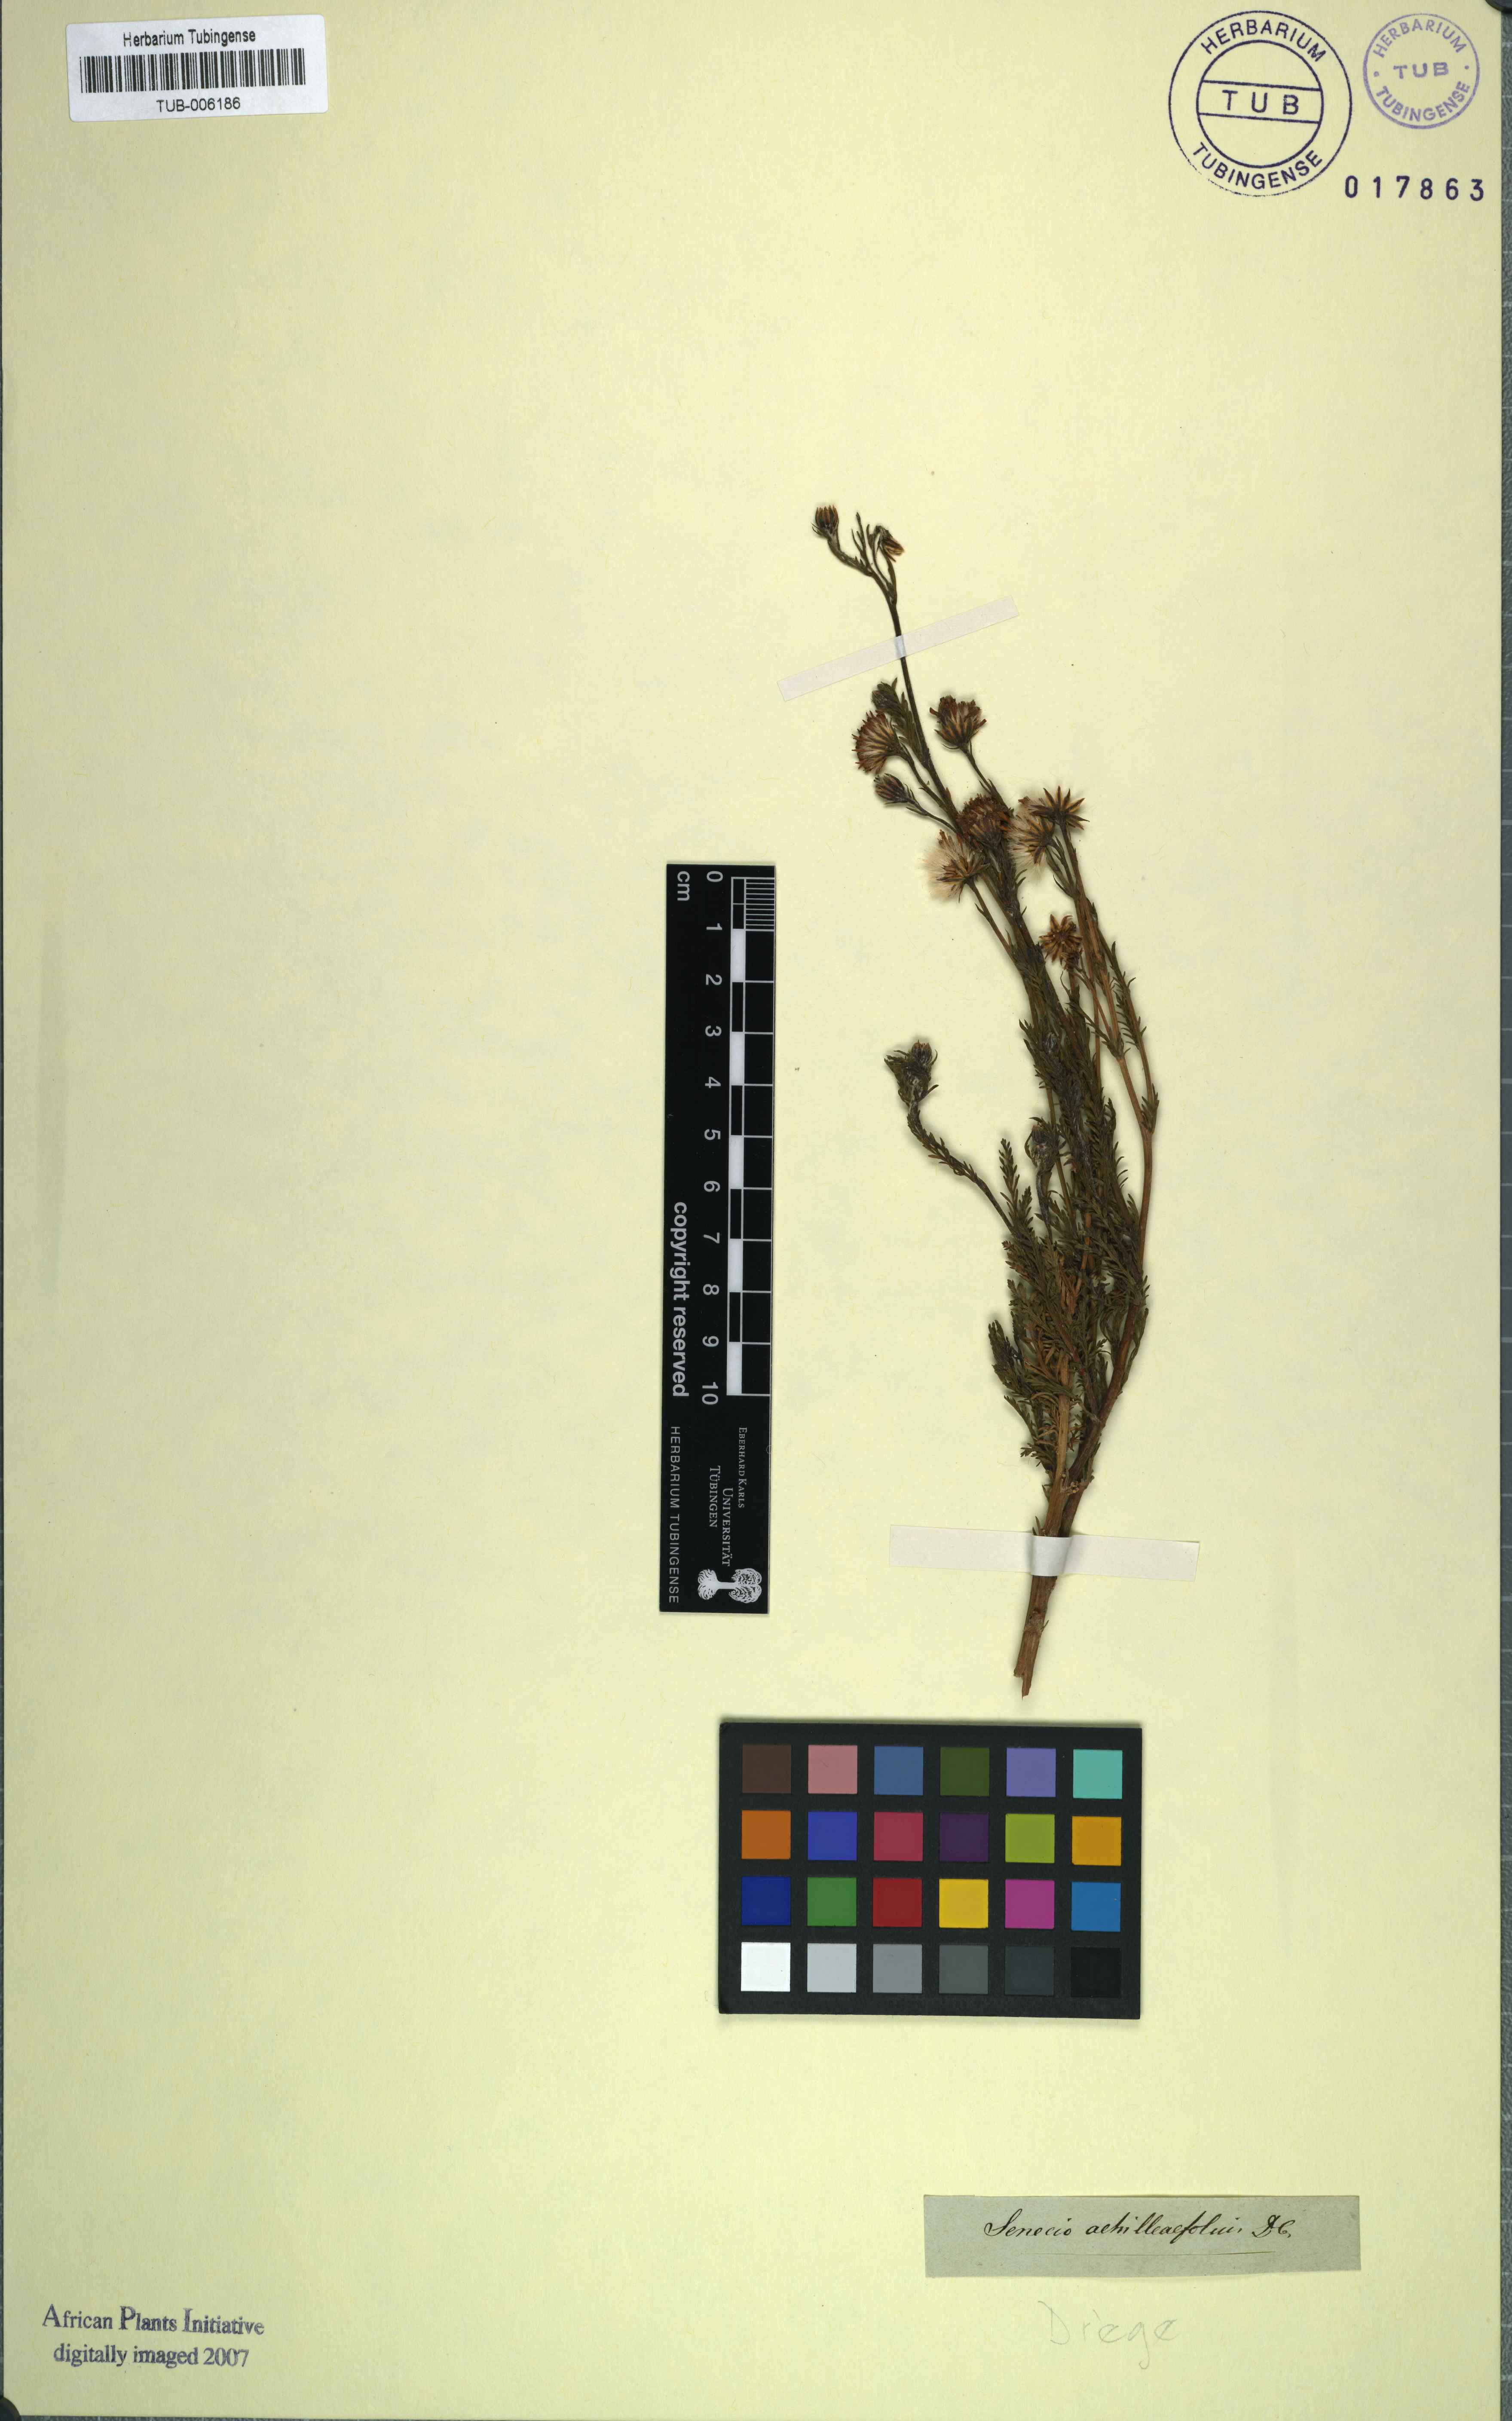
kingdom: Plantae
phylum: Tracheophyta
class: Magnoliopsida
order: Asterales
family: Asteraceae
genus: Senecio
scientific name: Senecio achilleifolius
